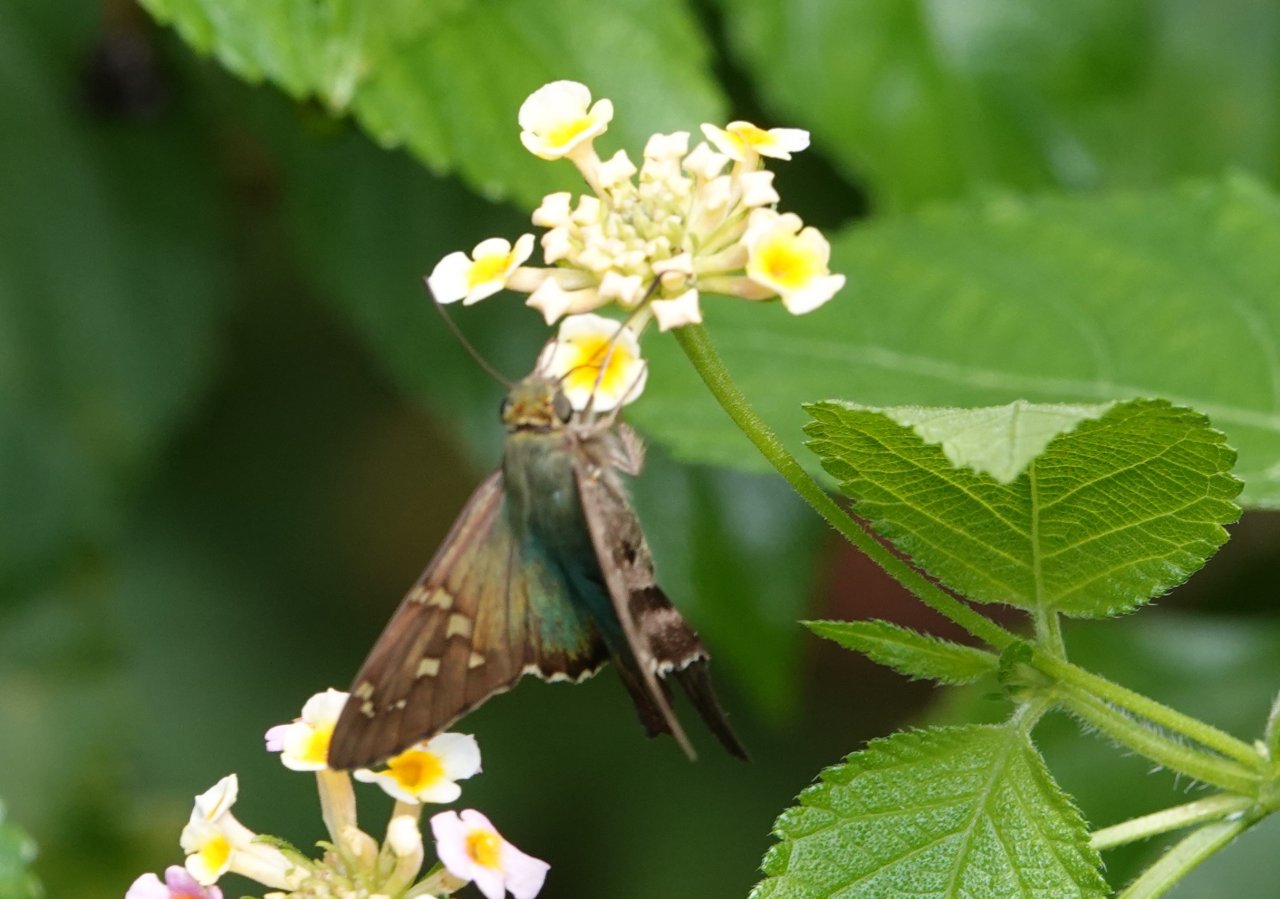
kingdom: Animalia
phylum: Arthropoda
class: Insecta
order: Lepidoptera
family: Hesperiidae
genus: Urbanus
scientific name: Urbanus proteus
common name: Long-tailed Skipper
